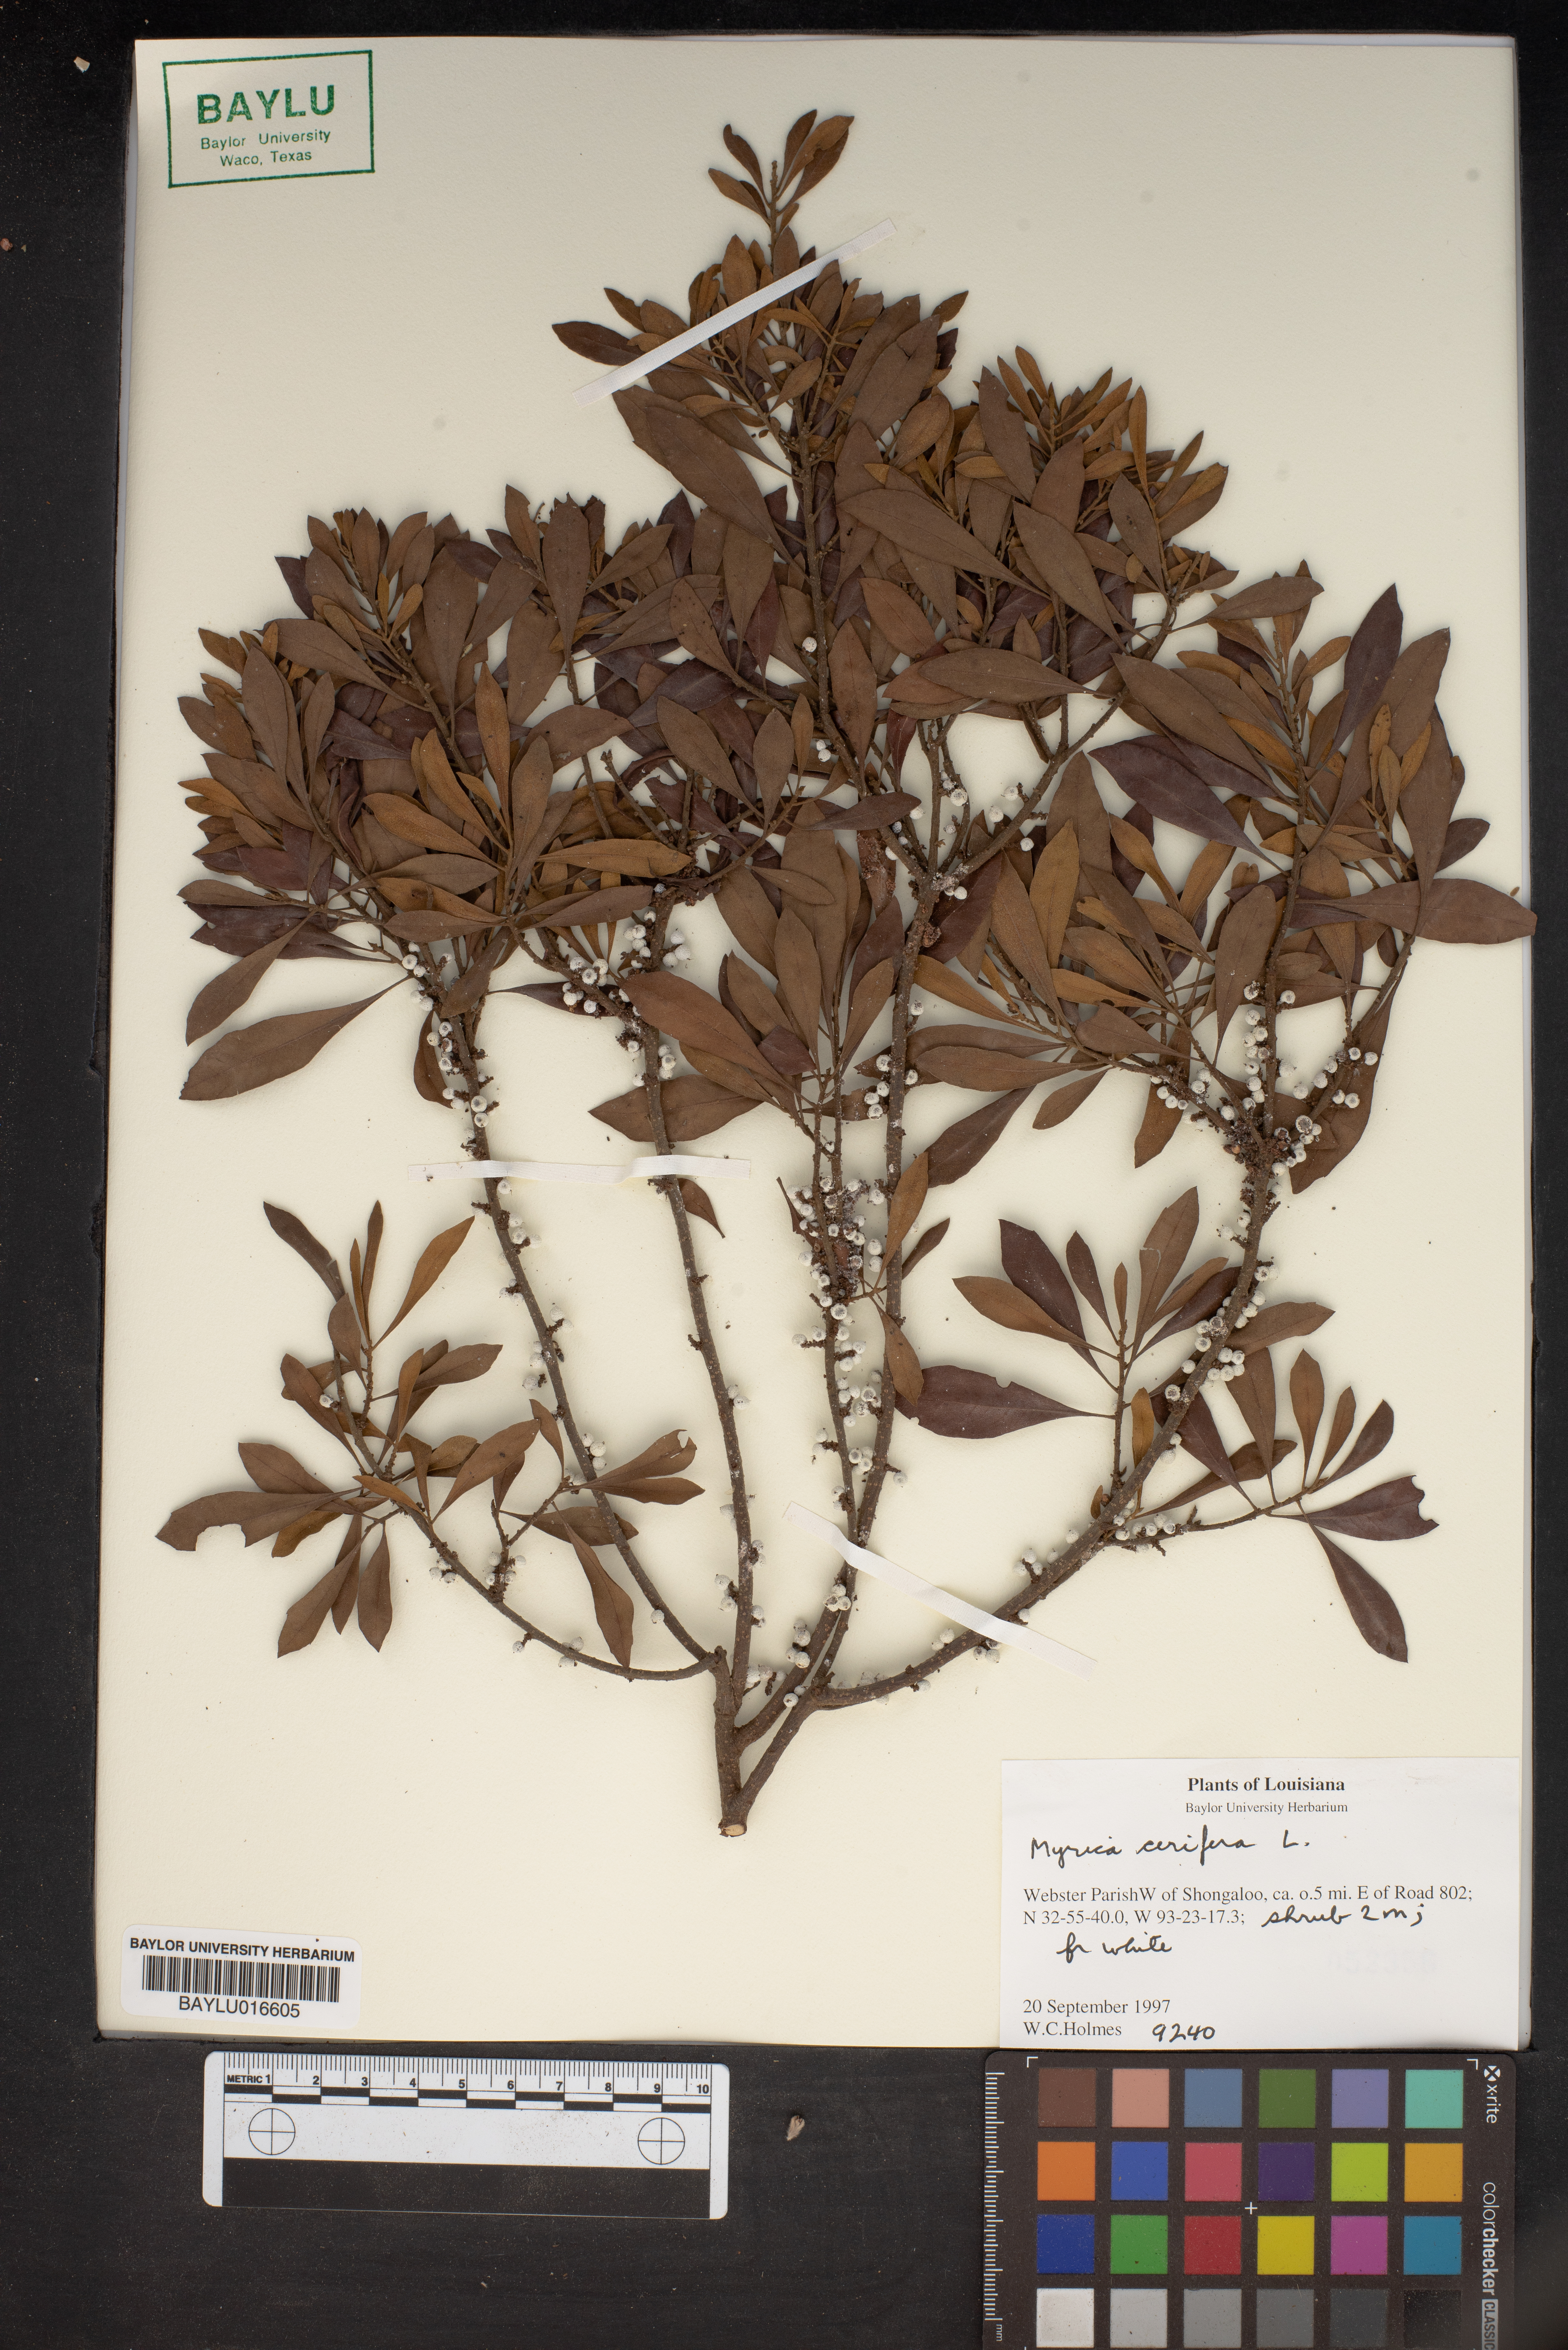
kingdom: Plantae
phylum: Tracheophyta
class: Magnoliopsida
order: Fagales
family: Myricaceae
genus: Morella
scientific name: Morella cerifera
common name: Wax myrtle
